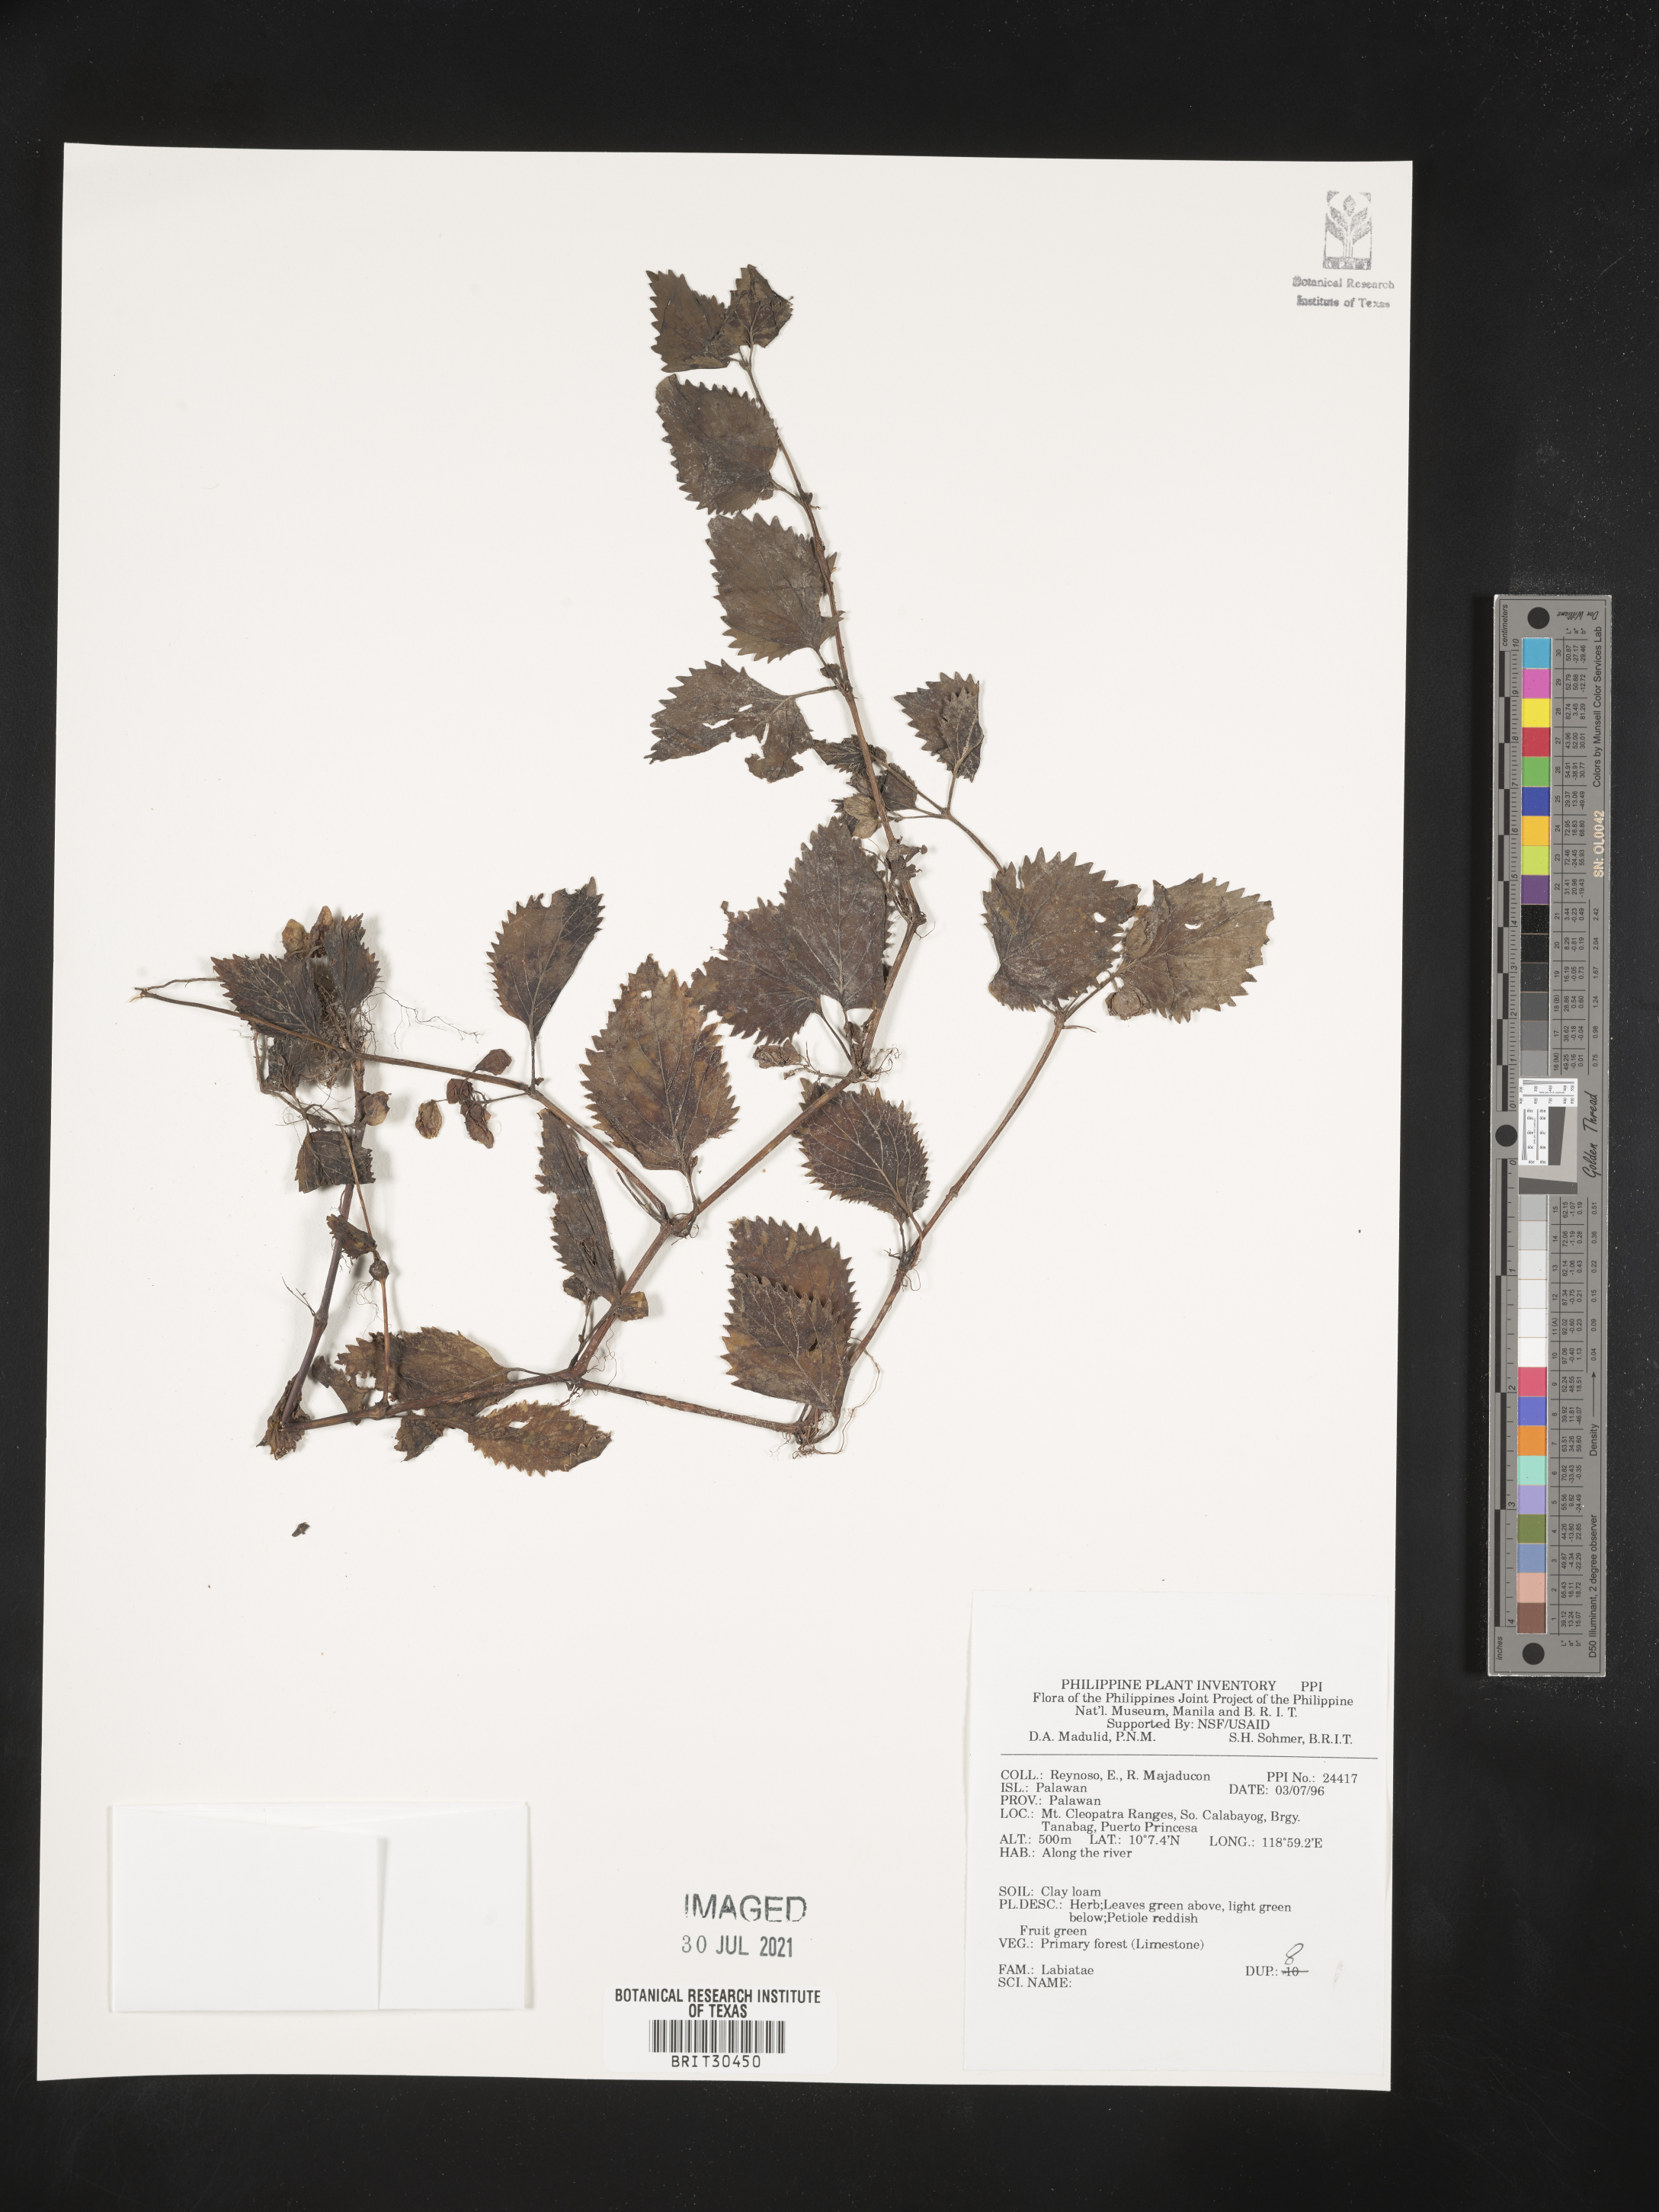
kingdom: Plantae
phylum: Tracheophyta
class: Magnoliopsida
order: Lamiales
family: Lamiaceae
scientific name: Lamiaceae
